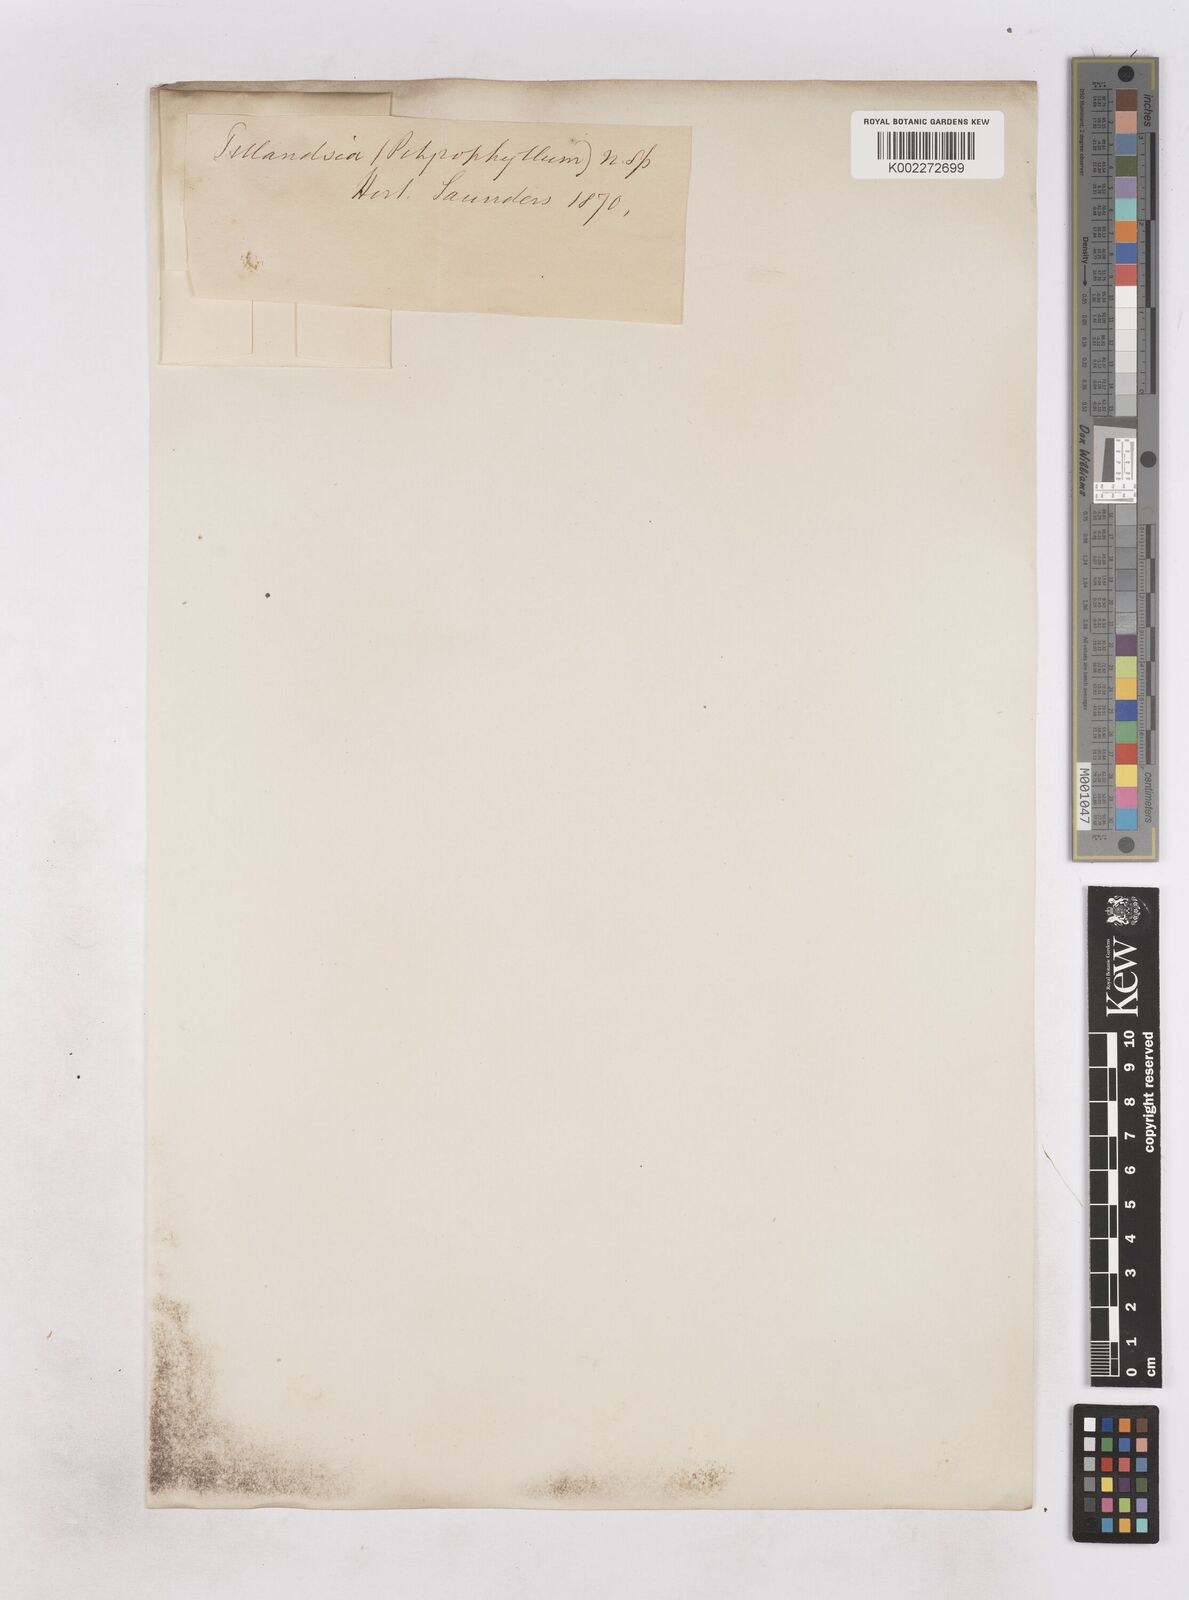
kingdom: Plantae
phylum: Tracheophyta
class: Liliopsida
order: Poales
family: Bromeliaceae
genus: Tillandsia
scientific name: Tillandsia ionantha
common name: Sky plant
